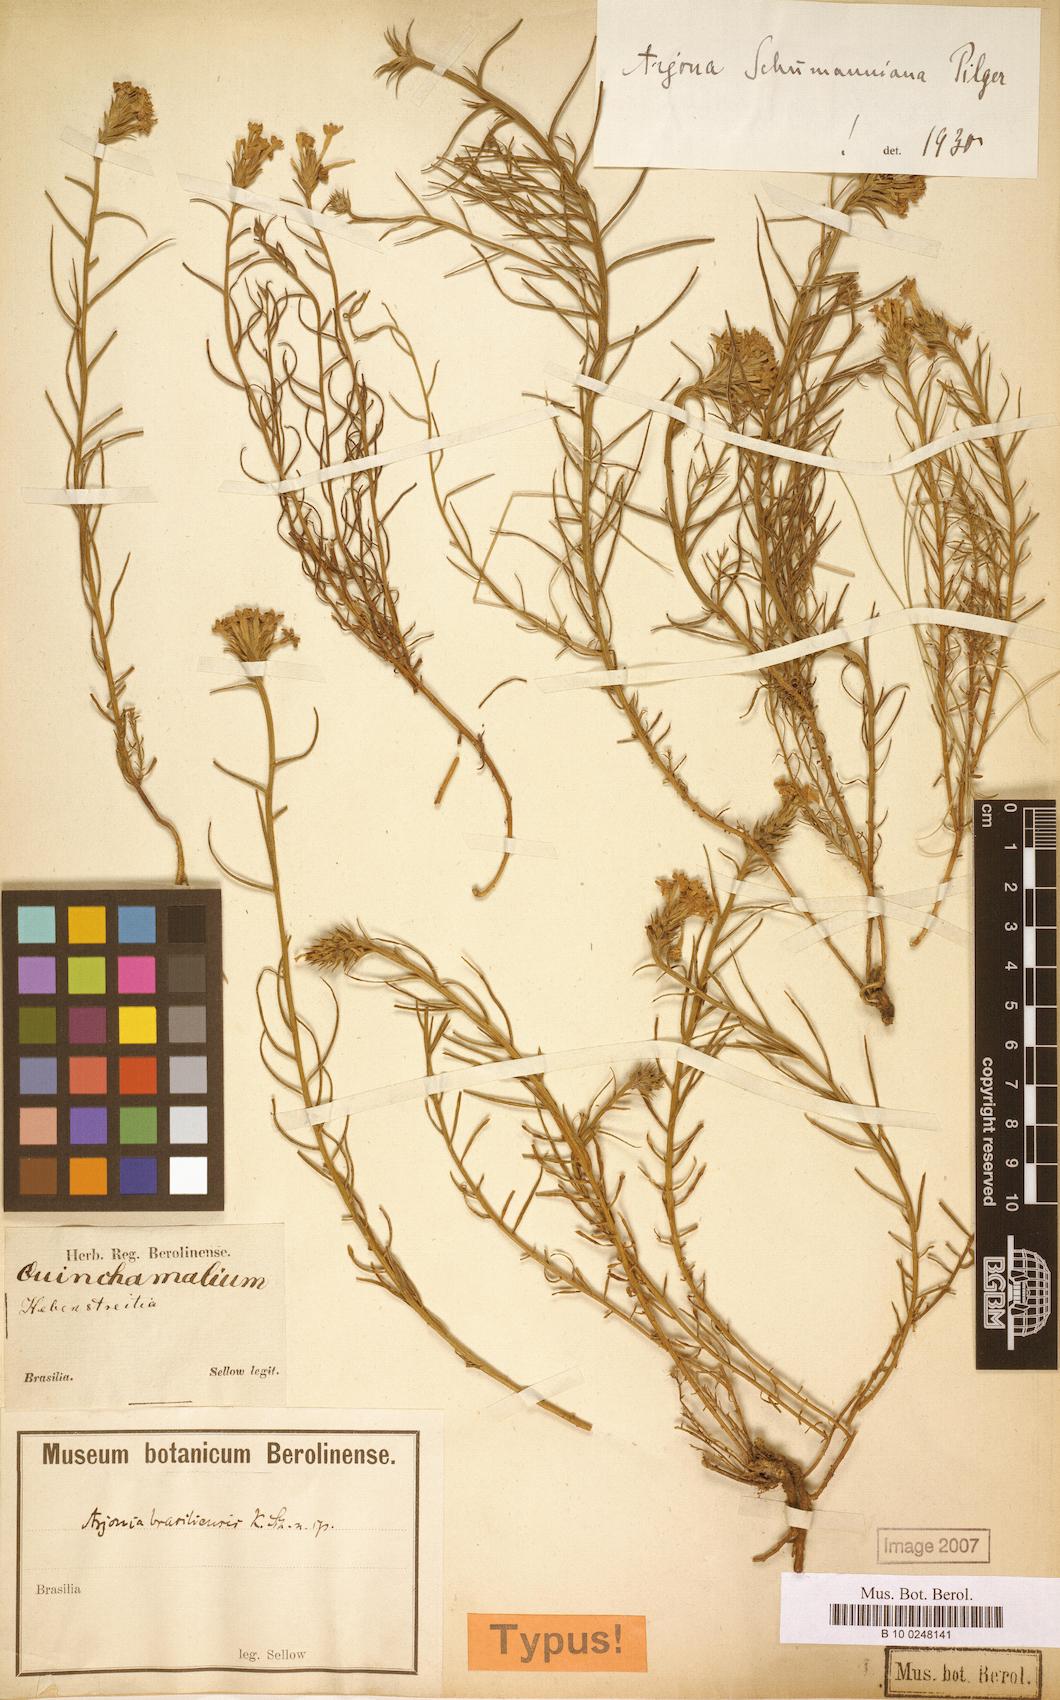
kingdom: Plantae
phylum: Tracheophyta
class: Magnoliopsida
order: Santalales
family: Schoepfiaceae
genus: Arjona
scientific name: Arjona megapotamica
